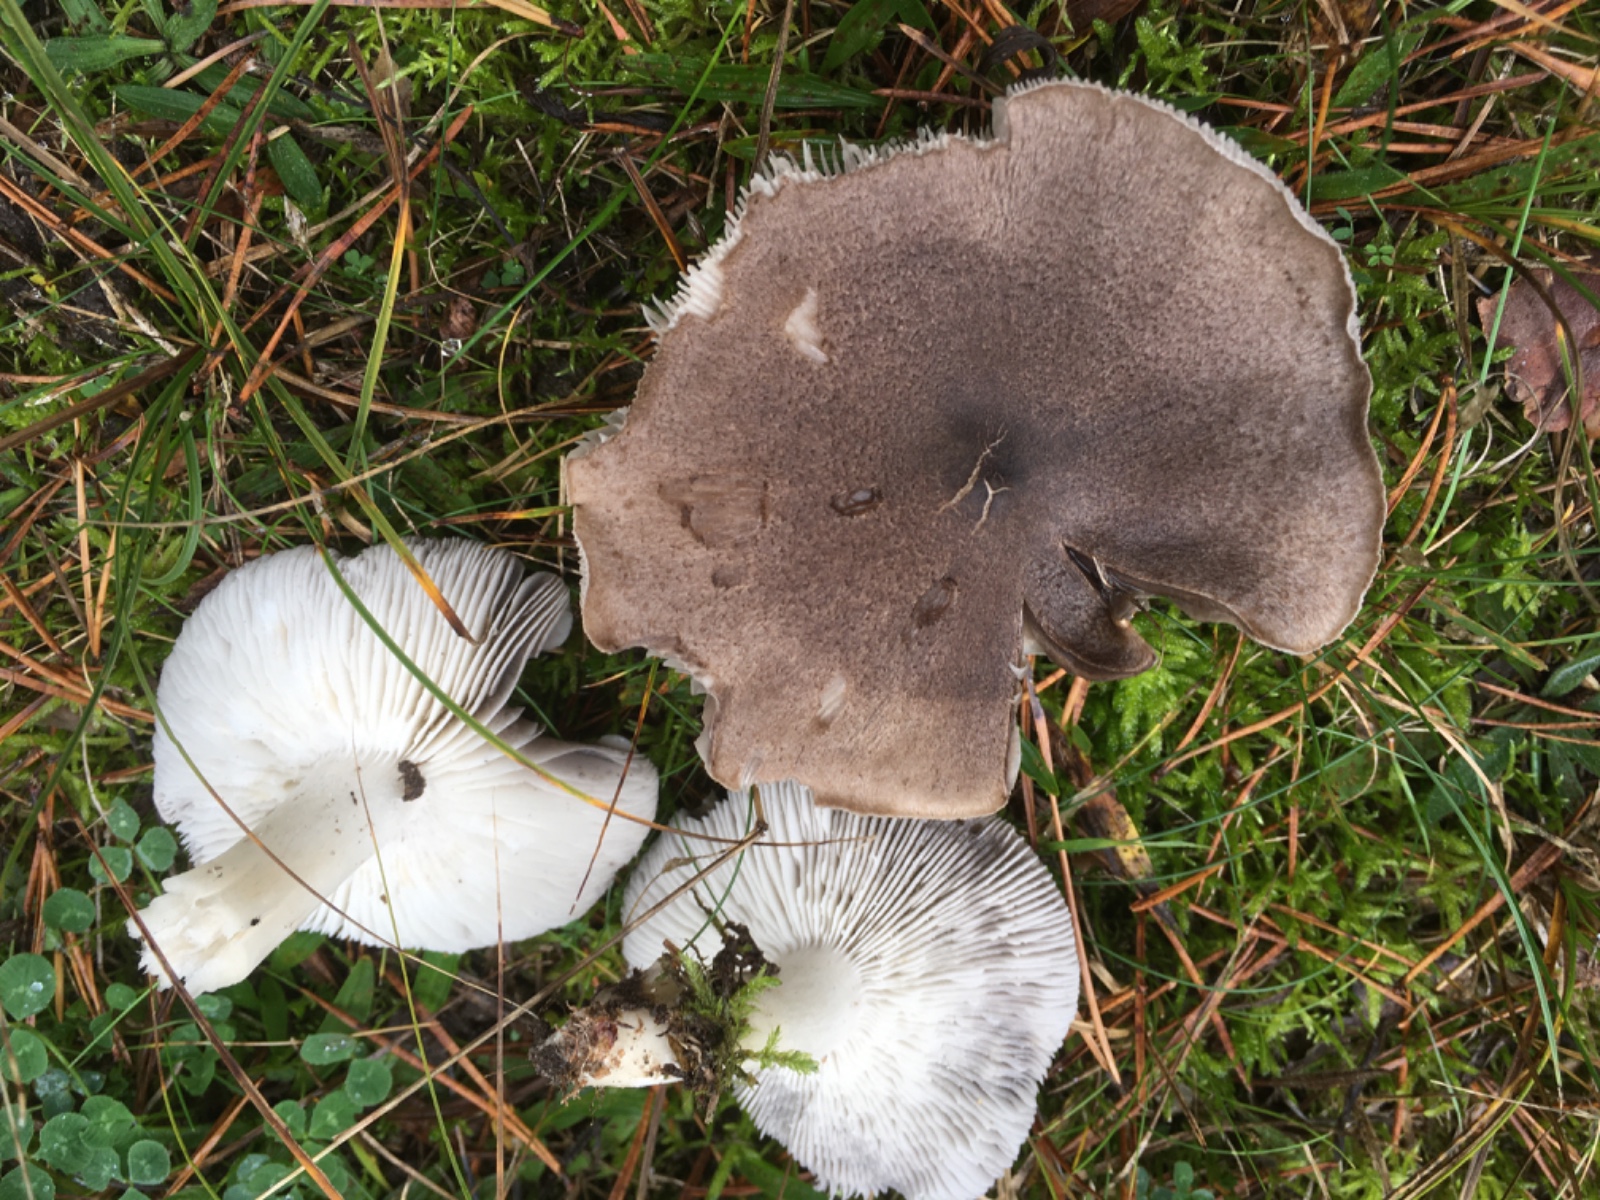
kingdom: Fungi
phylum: Basidiomycota
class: Agaricomycetes
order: Agaricales
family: Tricholomataceae
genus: Tricholoma
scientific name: Tricholoma terreum
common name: jordfarvet ridderhat
